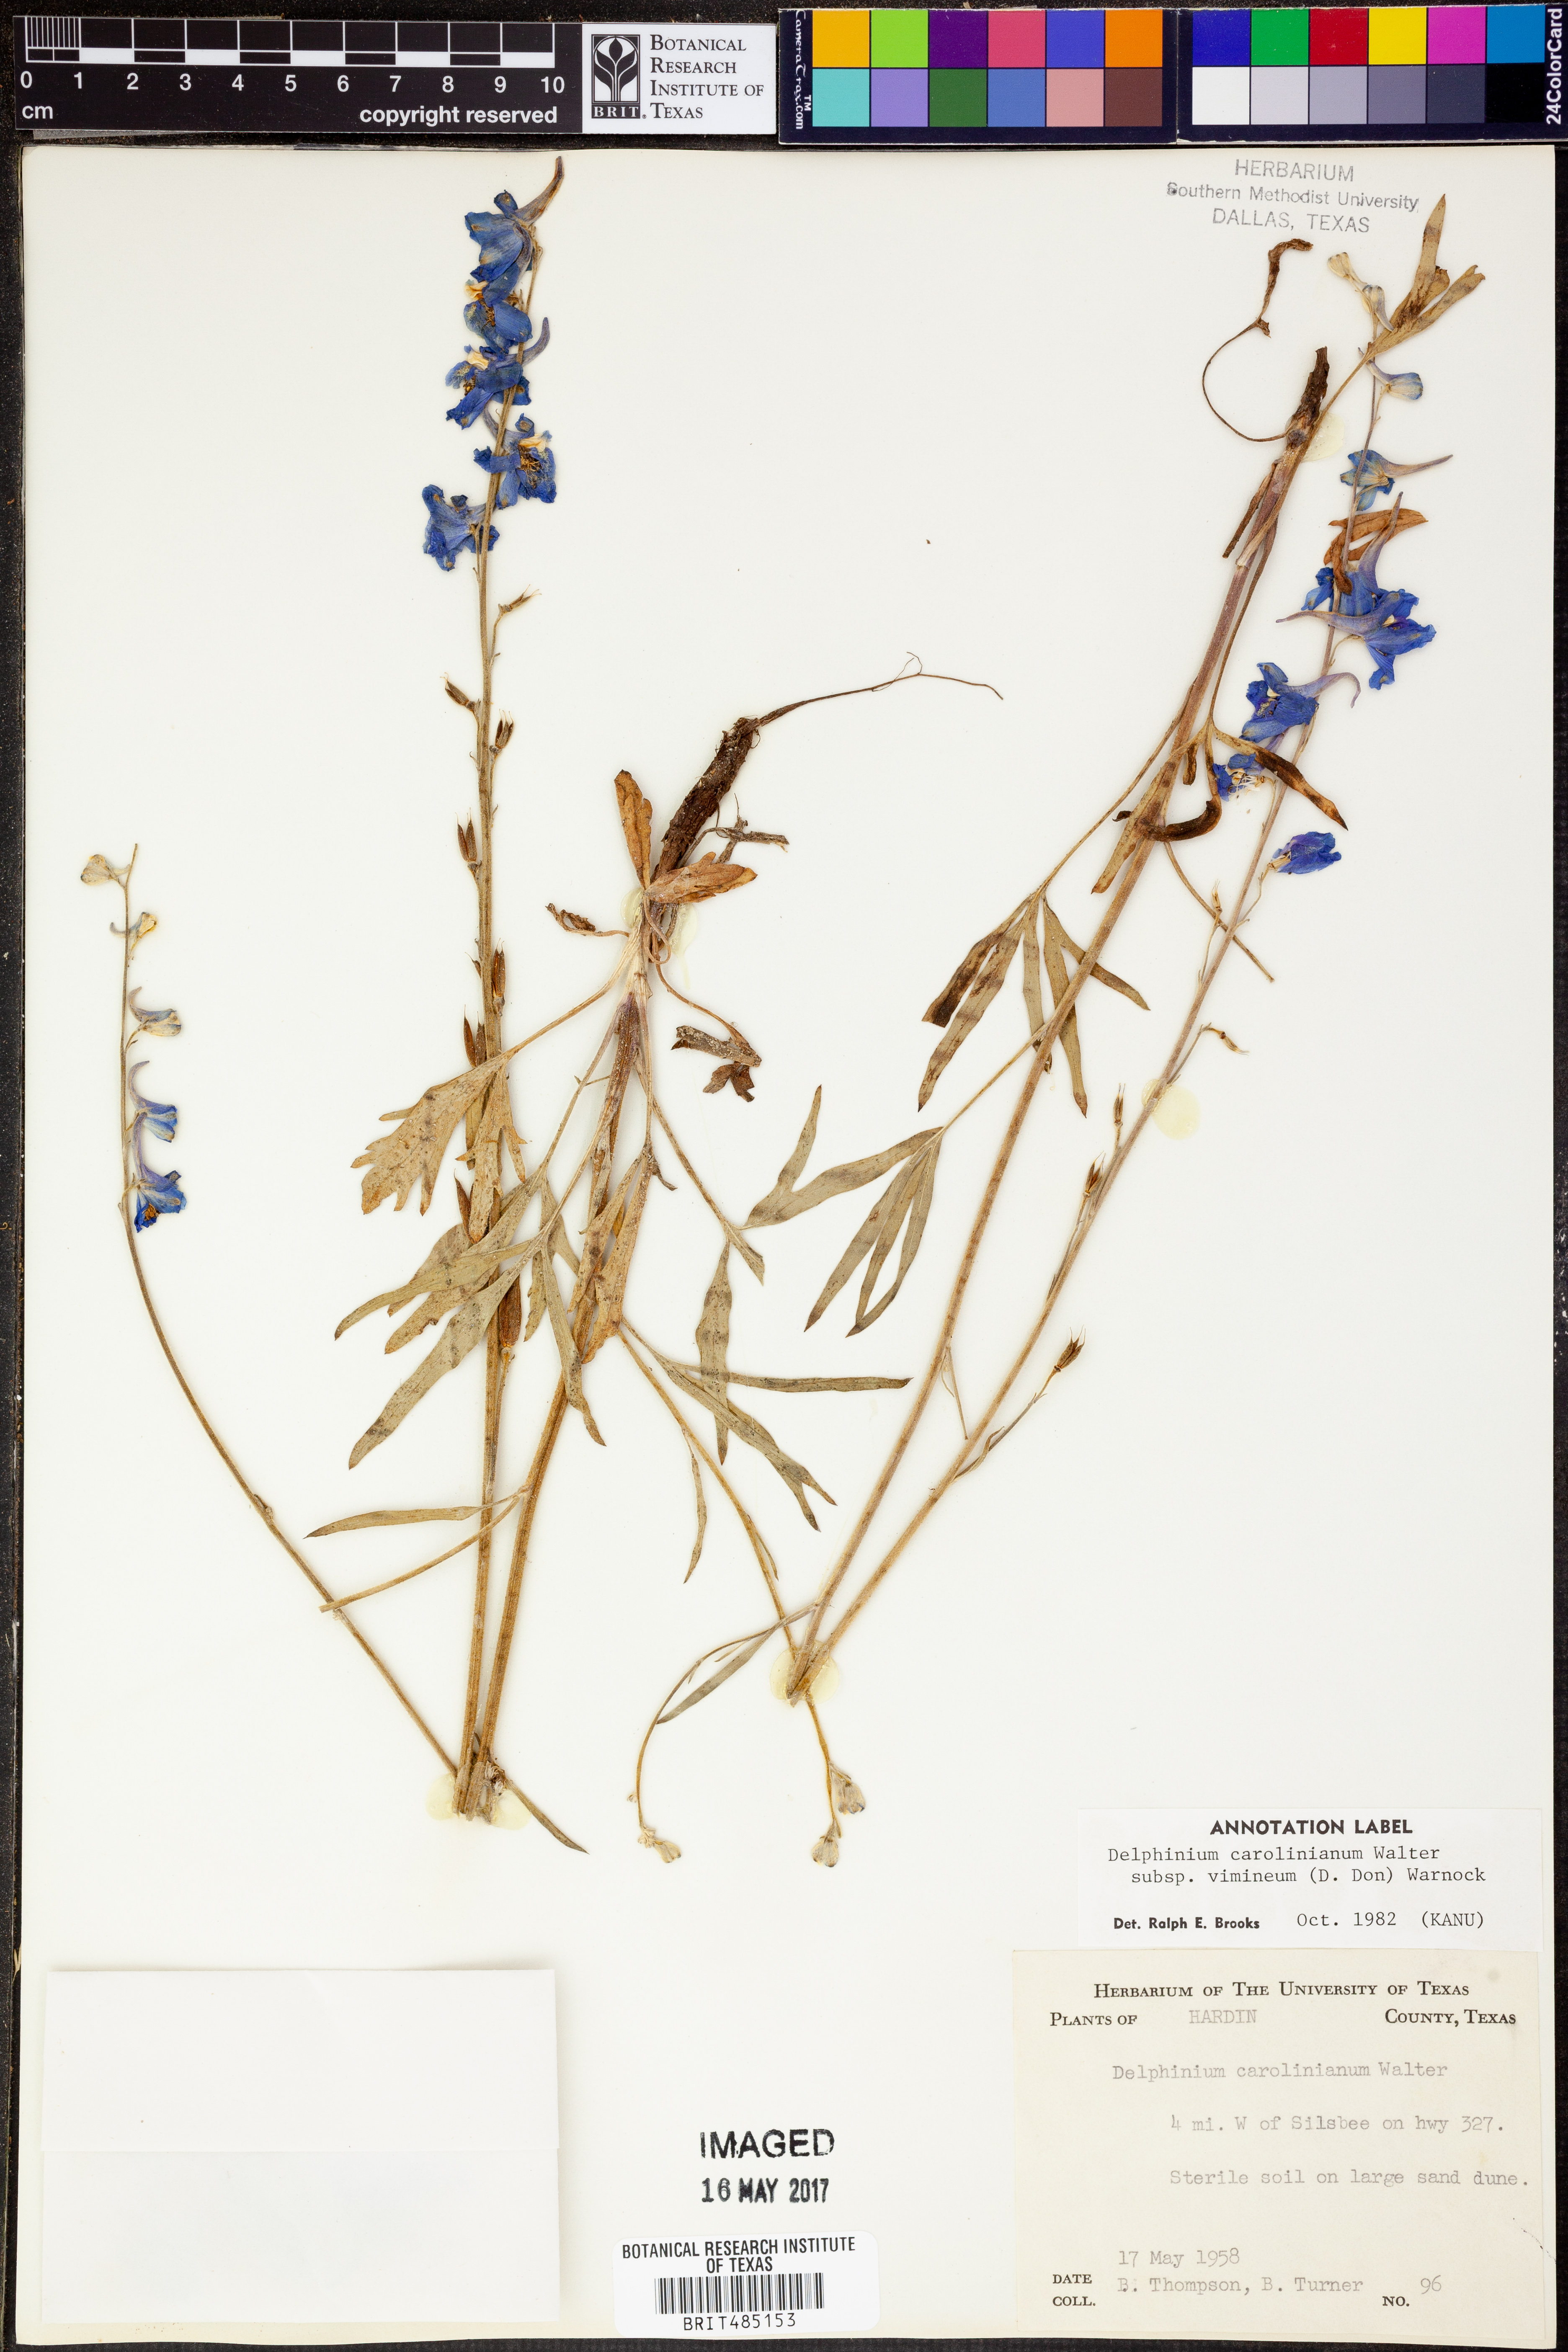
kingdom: Plantae
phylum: Tracheophyta
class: Magnoliopsida
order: Ranunculales
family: Ranunculaceae
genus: Delphinium
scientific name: Delphinium carolinianum
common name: Carolina larkspur
